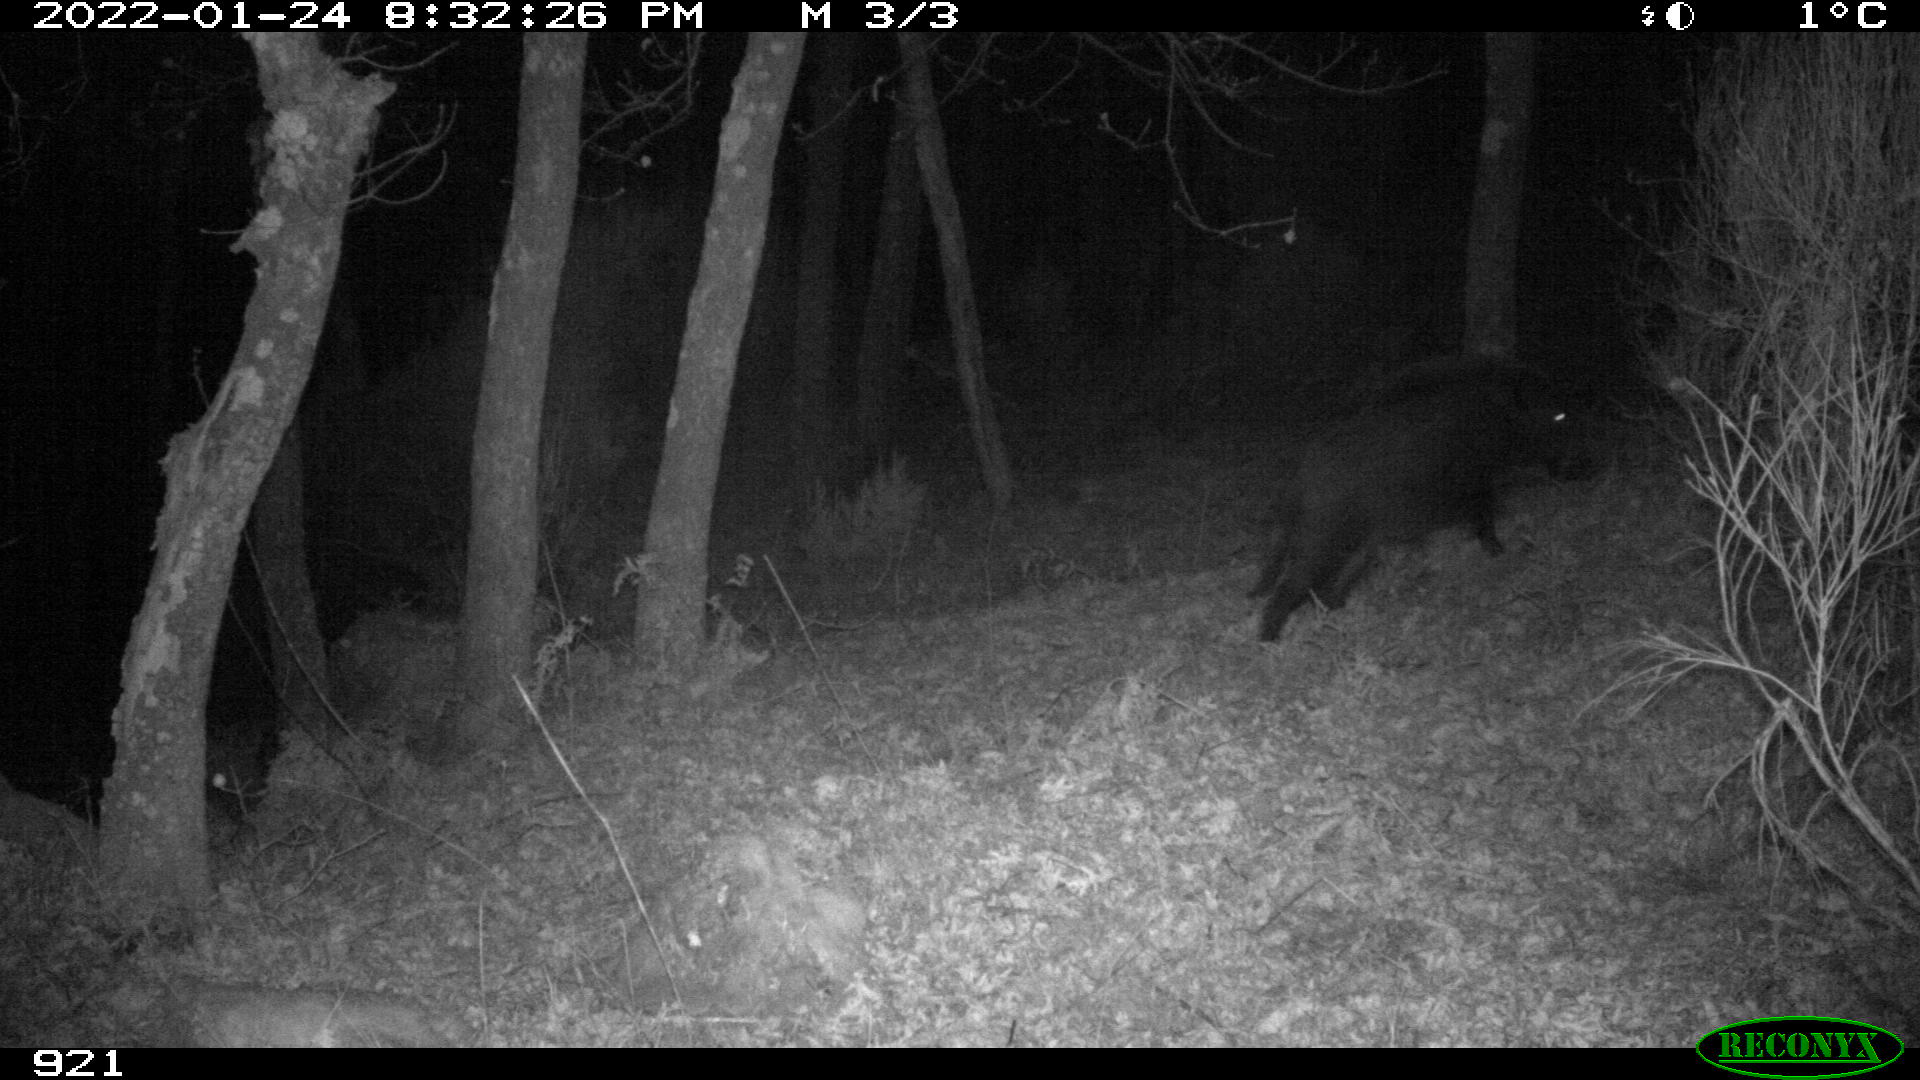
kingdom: Animalia
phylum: Chordata
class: Mammalia
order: Artiodactyla
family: Suidae
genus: Sus
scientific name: Sus scrofa
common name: Wild boar
